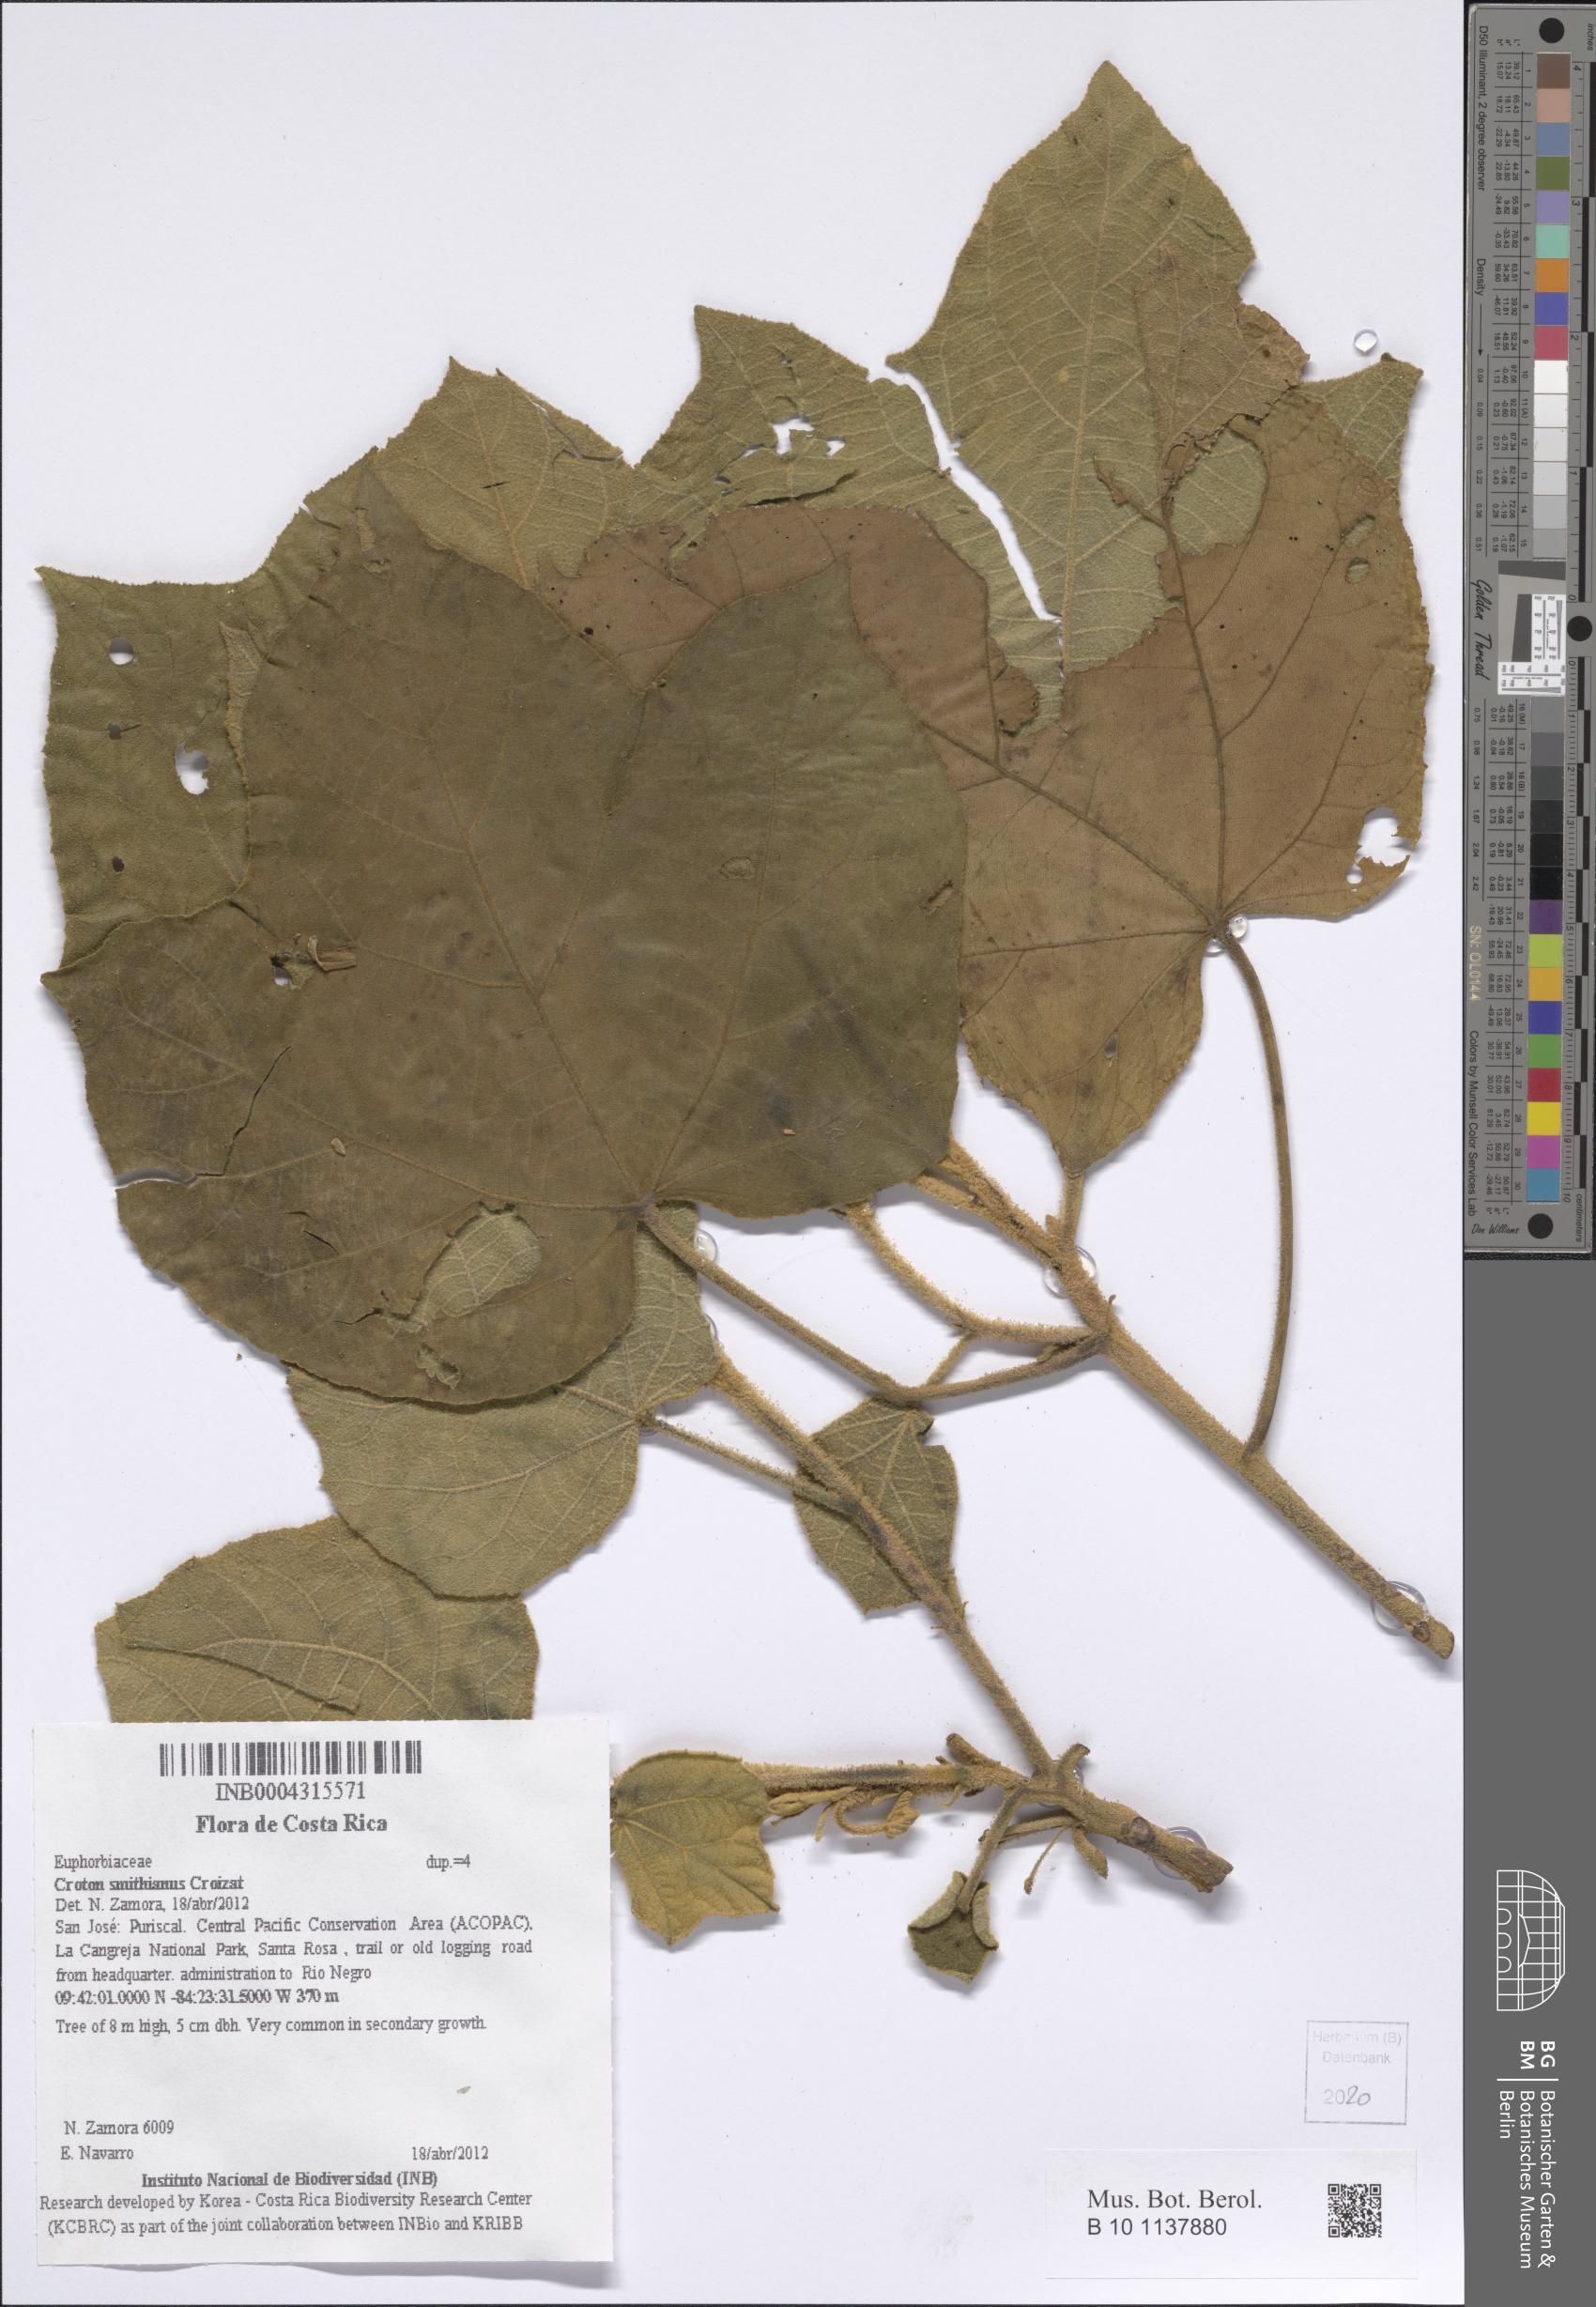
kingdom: Plantae
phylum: Tracheophyta
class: Magnoliopsida
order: Malpighiales
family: Euphorbiaceae
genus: Croton
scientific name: Croton smithianus
